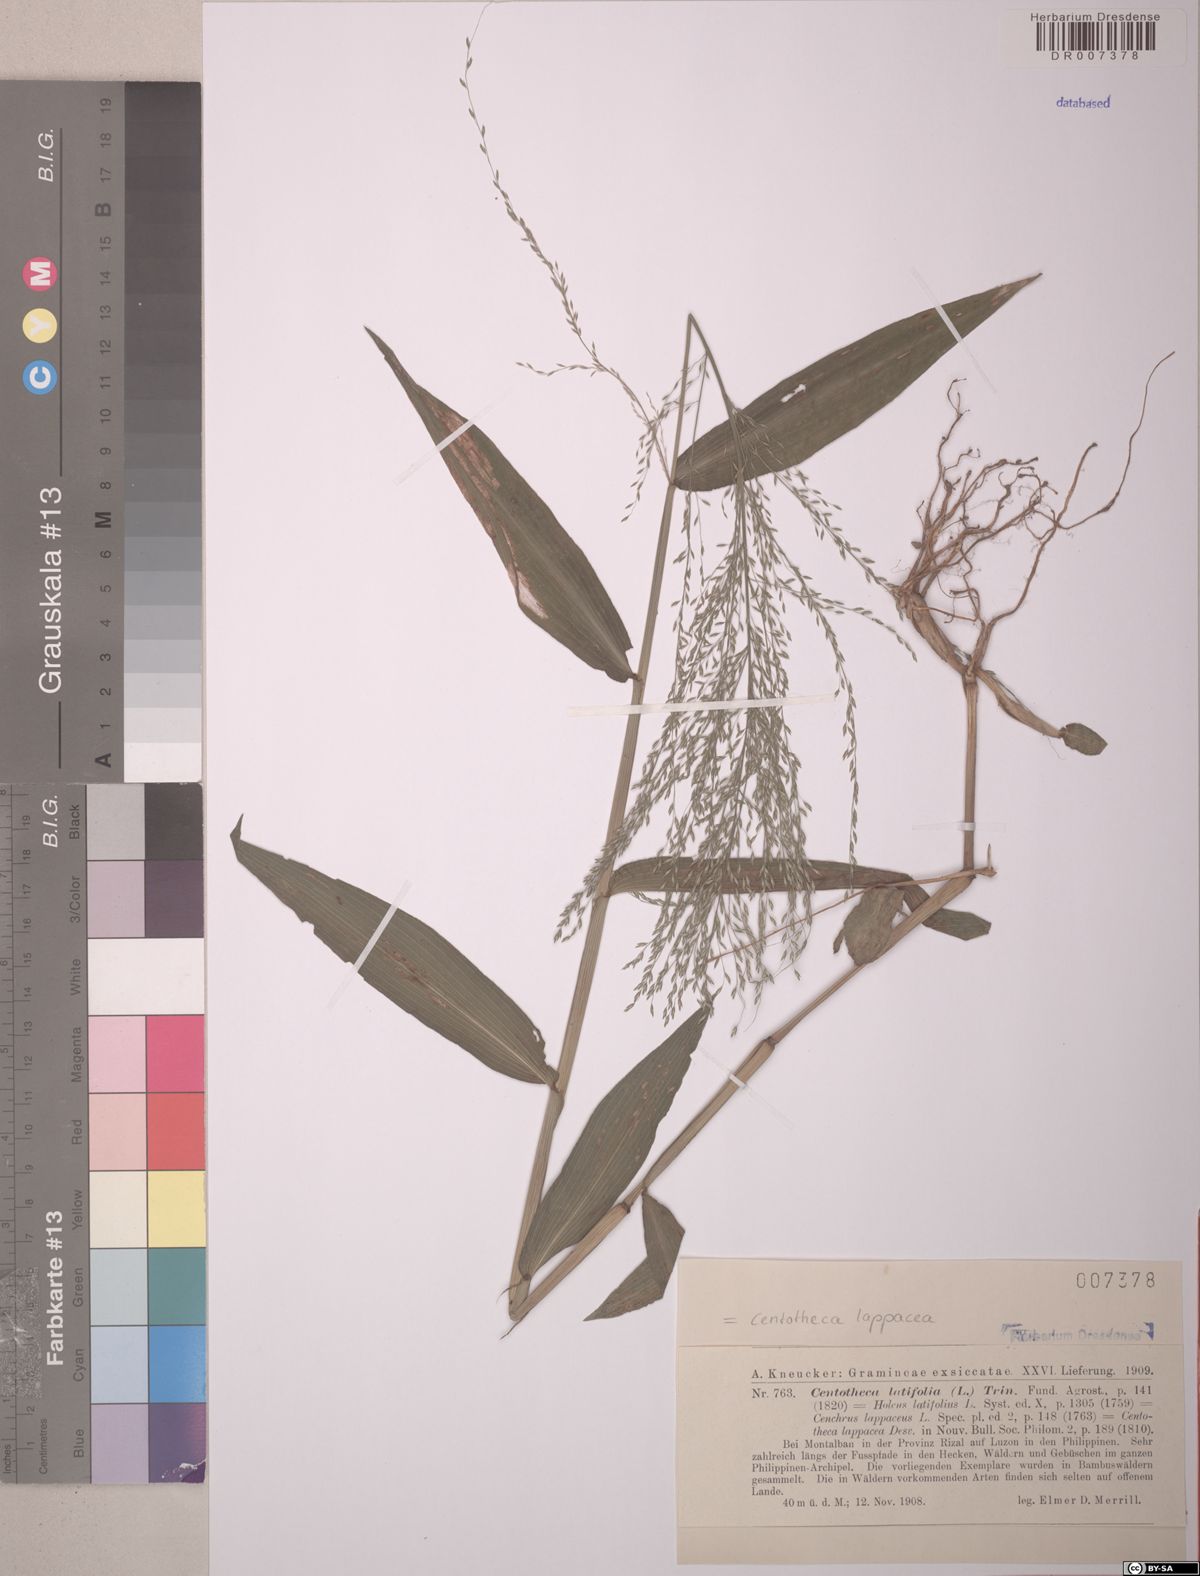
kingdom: Plantae
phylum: Tracheophyta
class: Liliopsida
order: Poales
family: Poaceae
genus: Centotheca
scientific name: Centotheca lappacea
